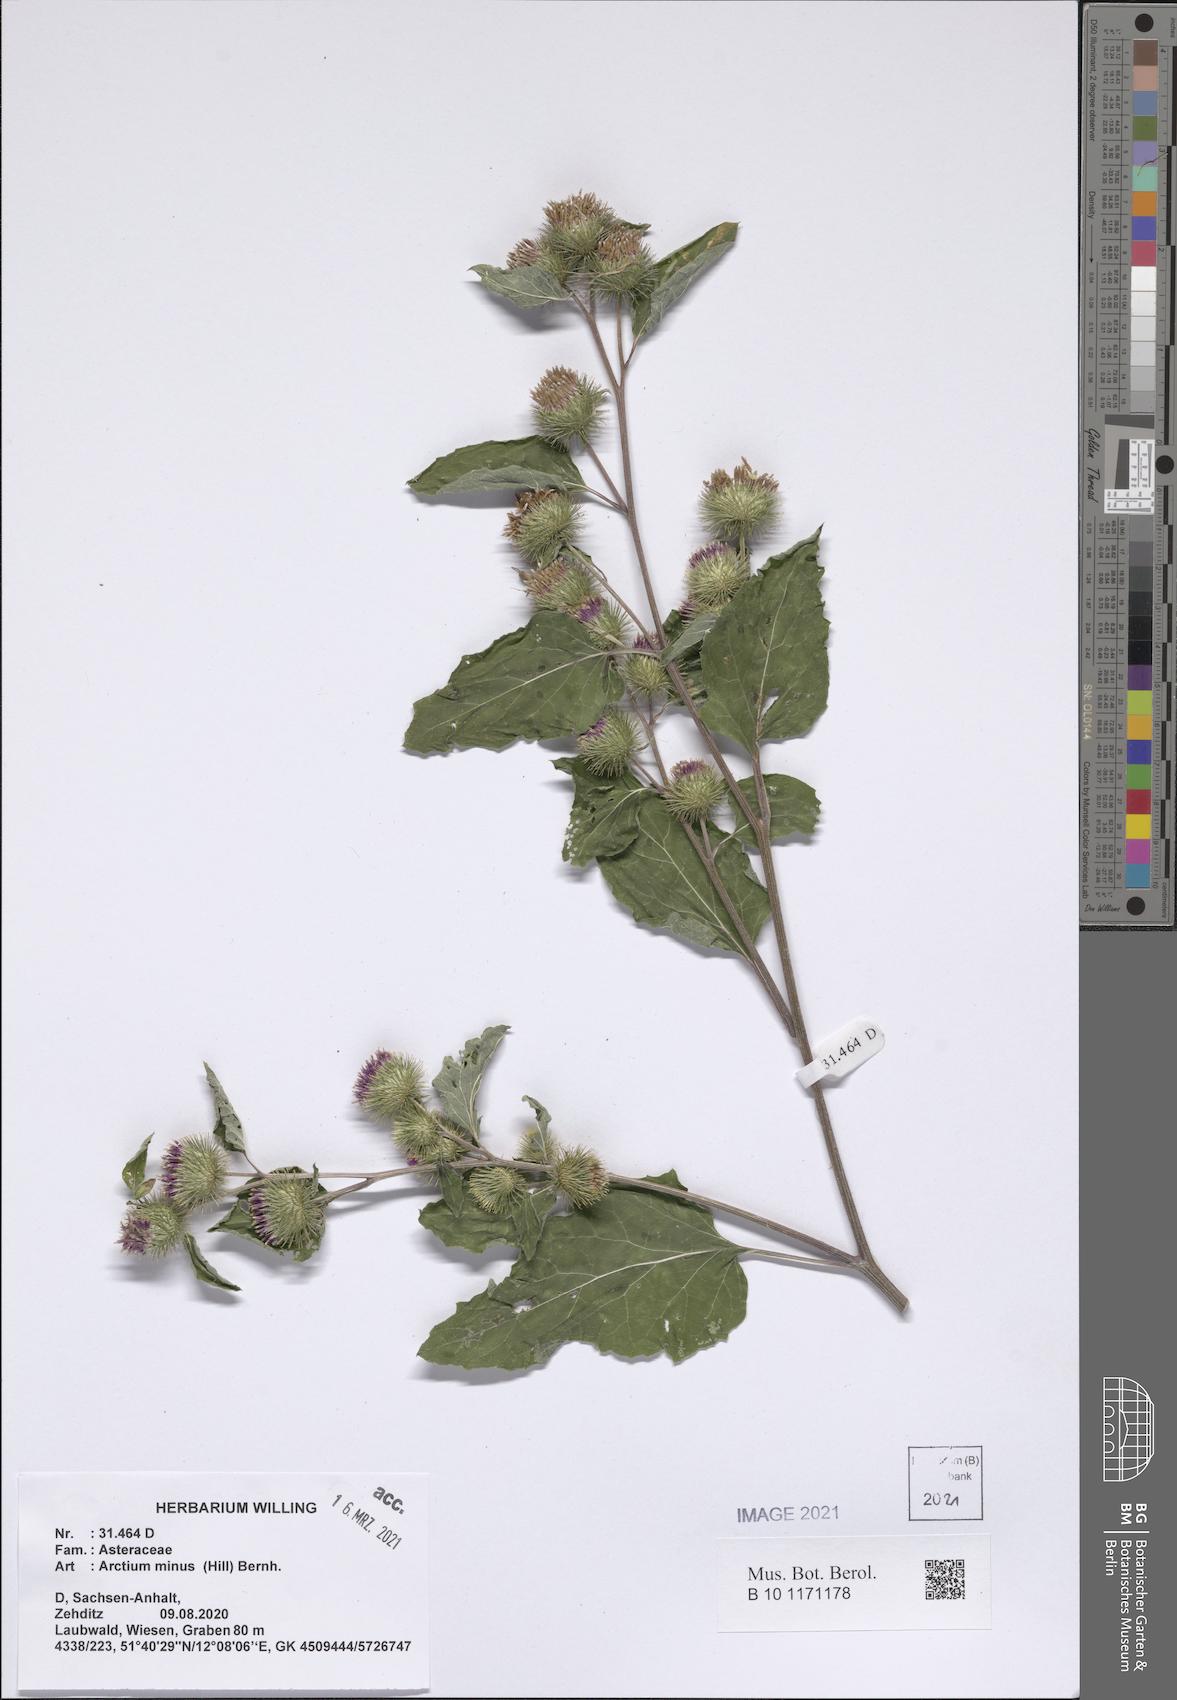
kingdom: Plantae
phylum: Tracheophyta
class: Magnoliopsida
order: Asterales
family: Asteraceae
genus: Arctium
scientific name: Arctium minus
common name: Lesser burdock
